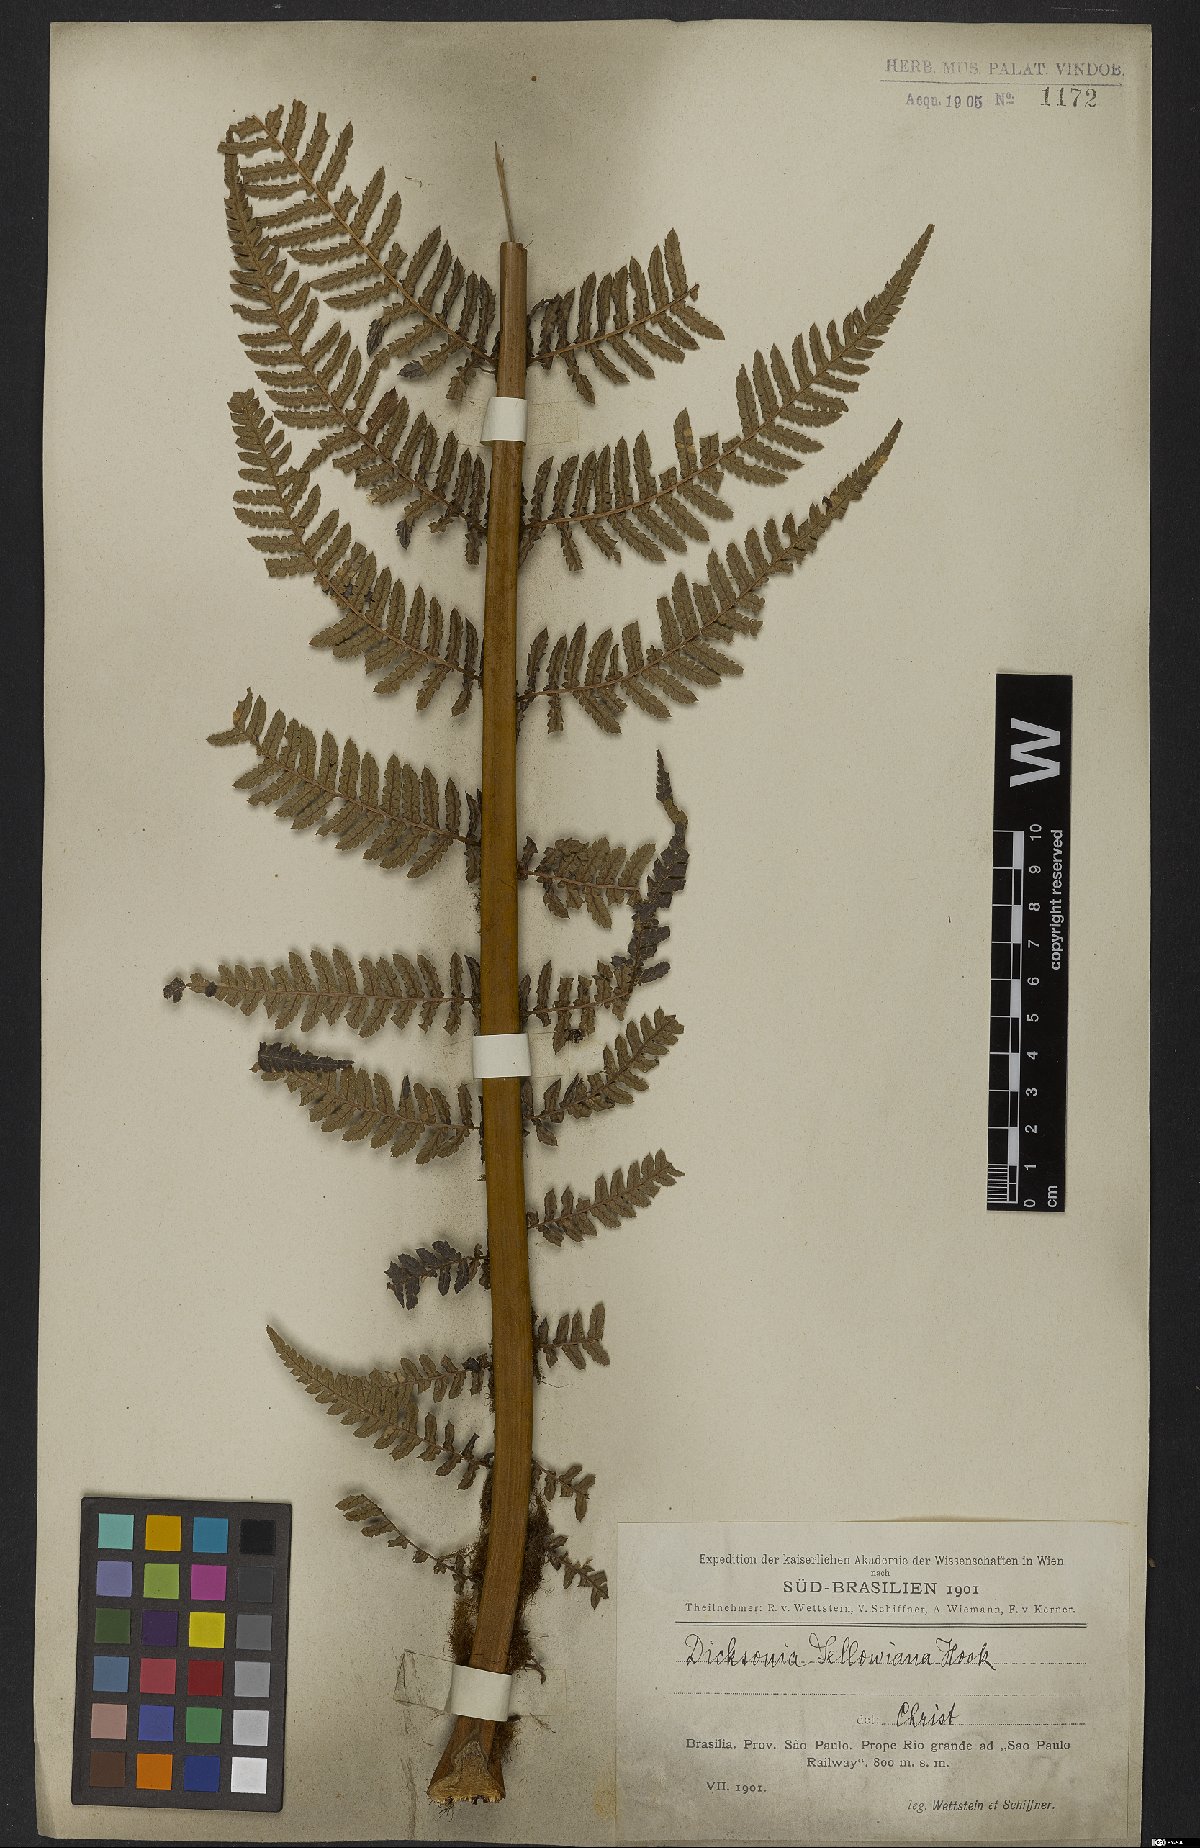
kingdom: Plantae
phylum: Tracheophyta
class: Polypodiopsida
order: Cyatheales
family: Dicksoniaceae
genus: Dicksonia
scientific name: Dicksonia sellowiana
